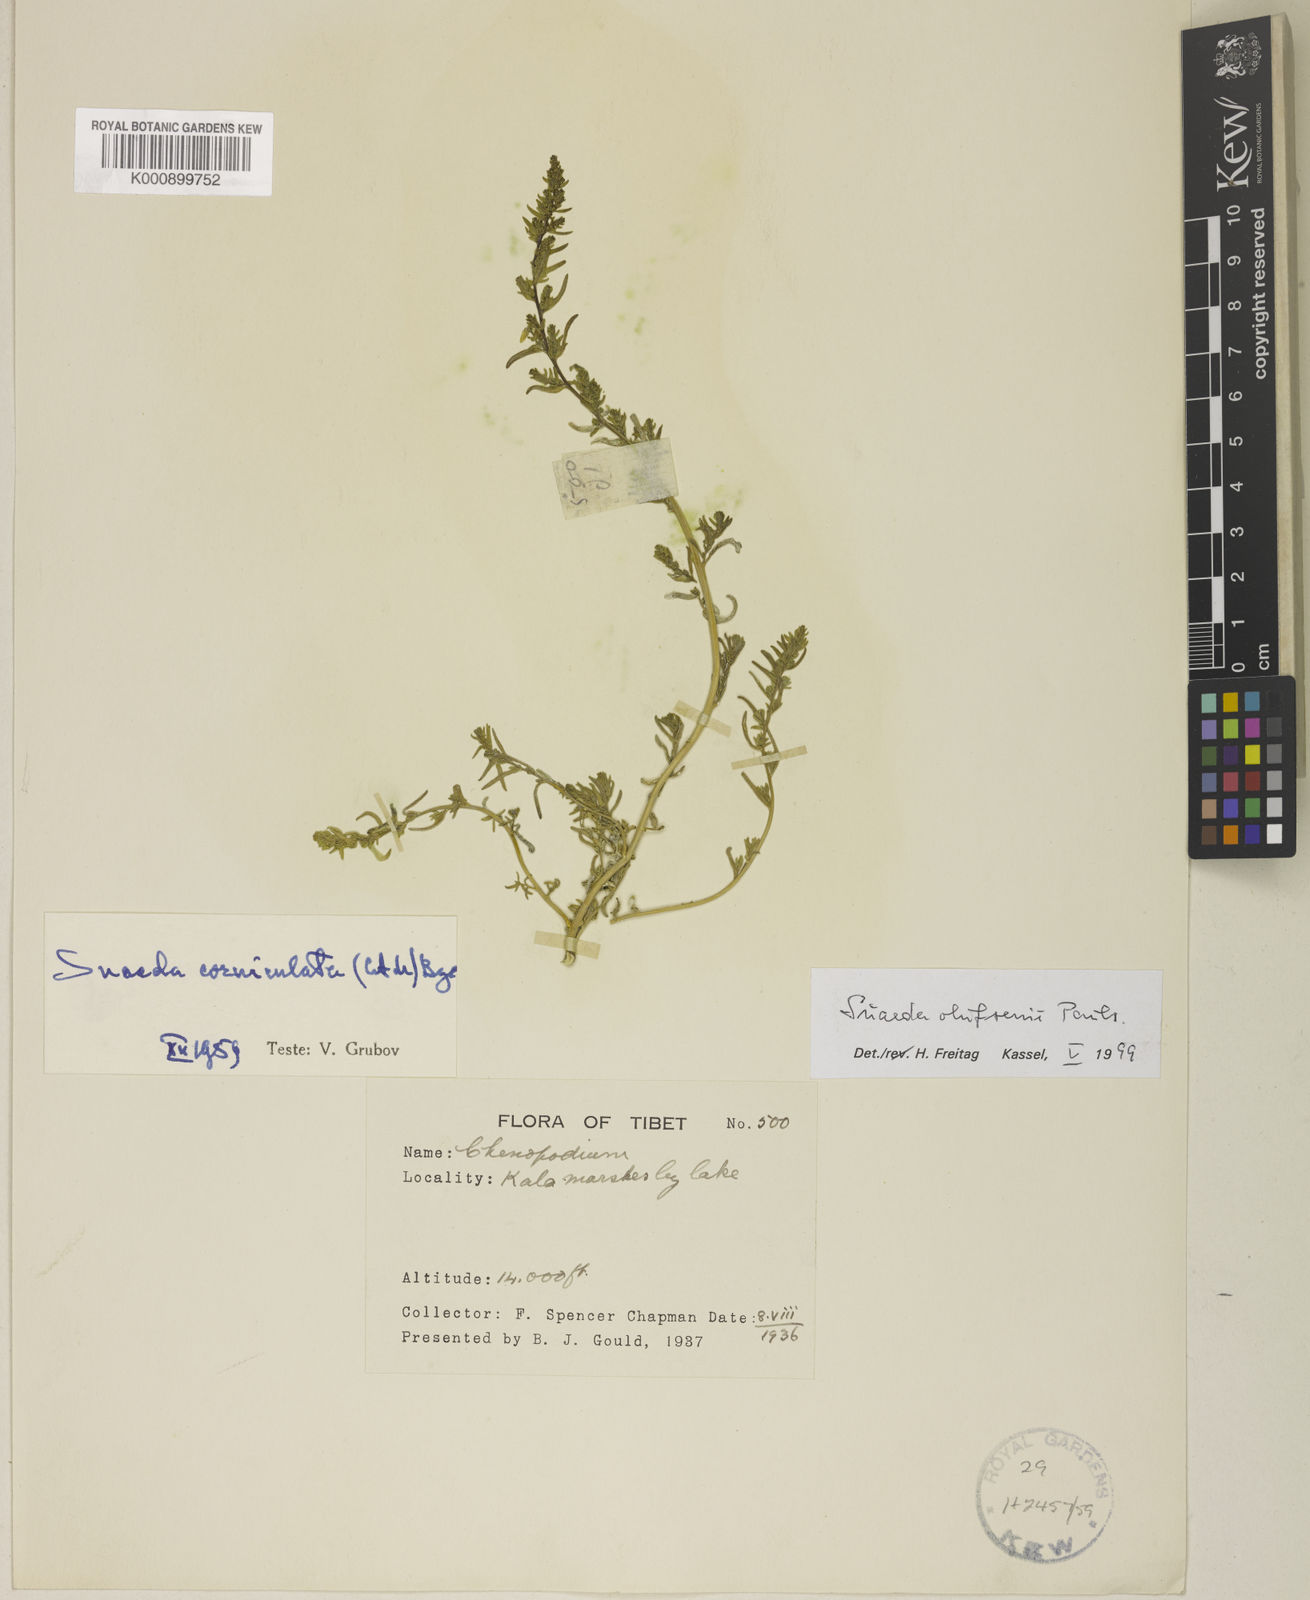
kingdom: Plantae
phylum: Tracheophyta
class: Magnoliopsida
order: Caryophyllales
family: Amaranthaceae
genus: Suaeda
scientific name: Suaeda olufsenii
